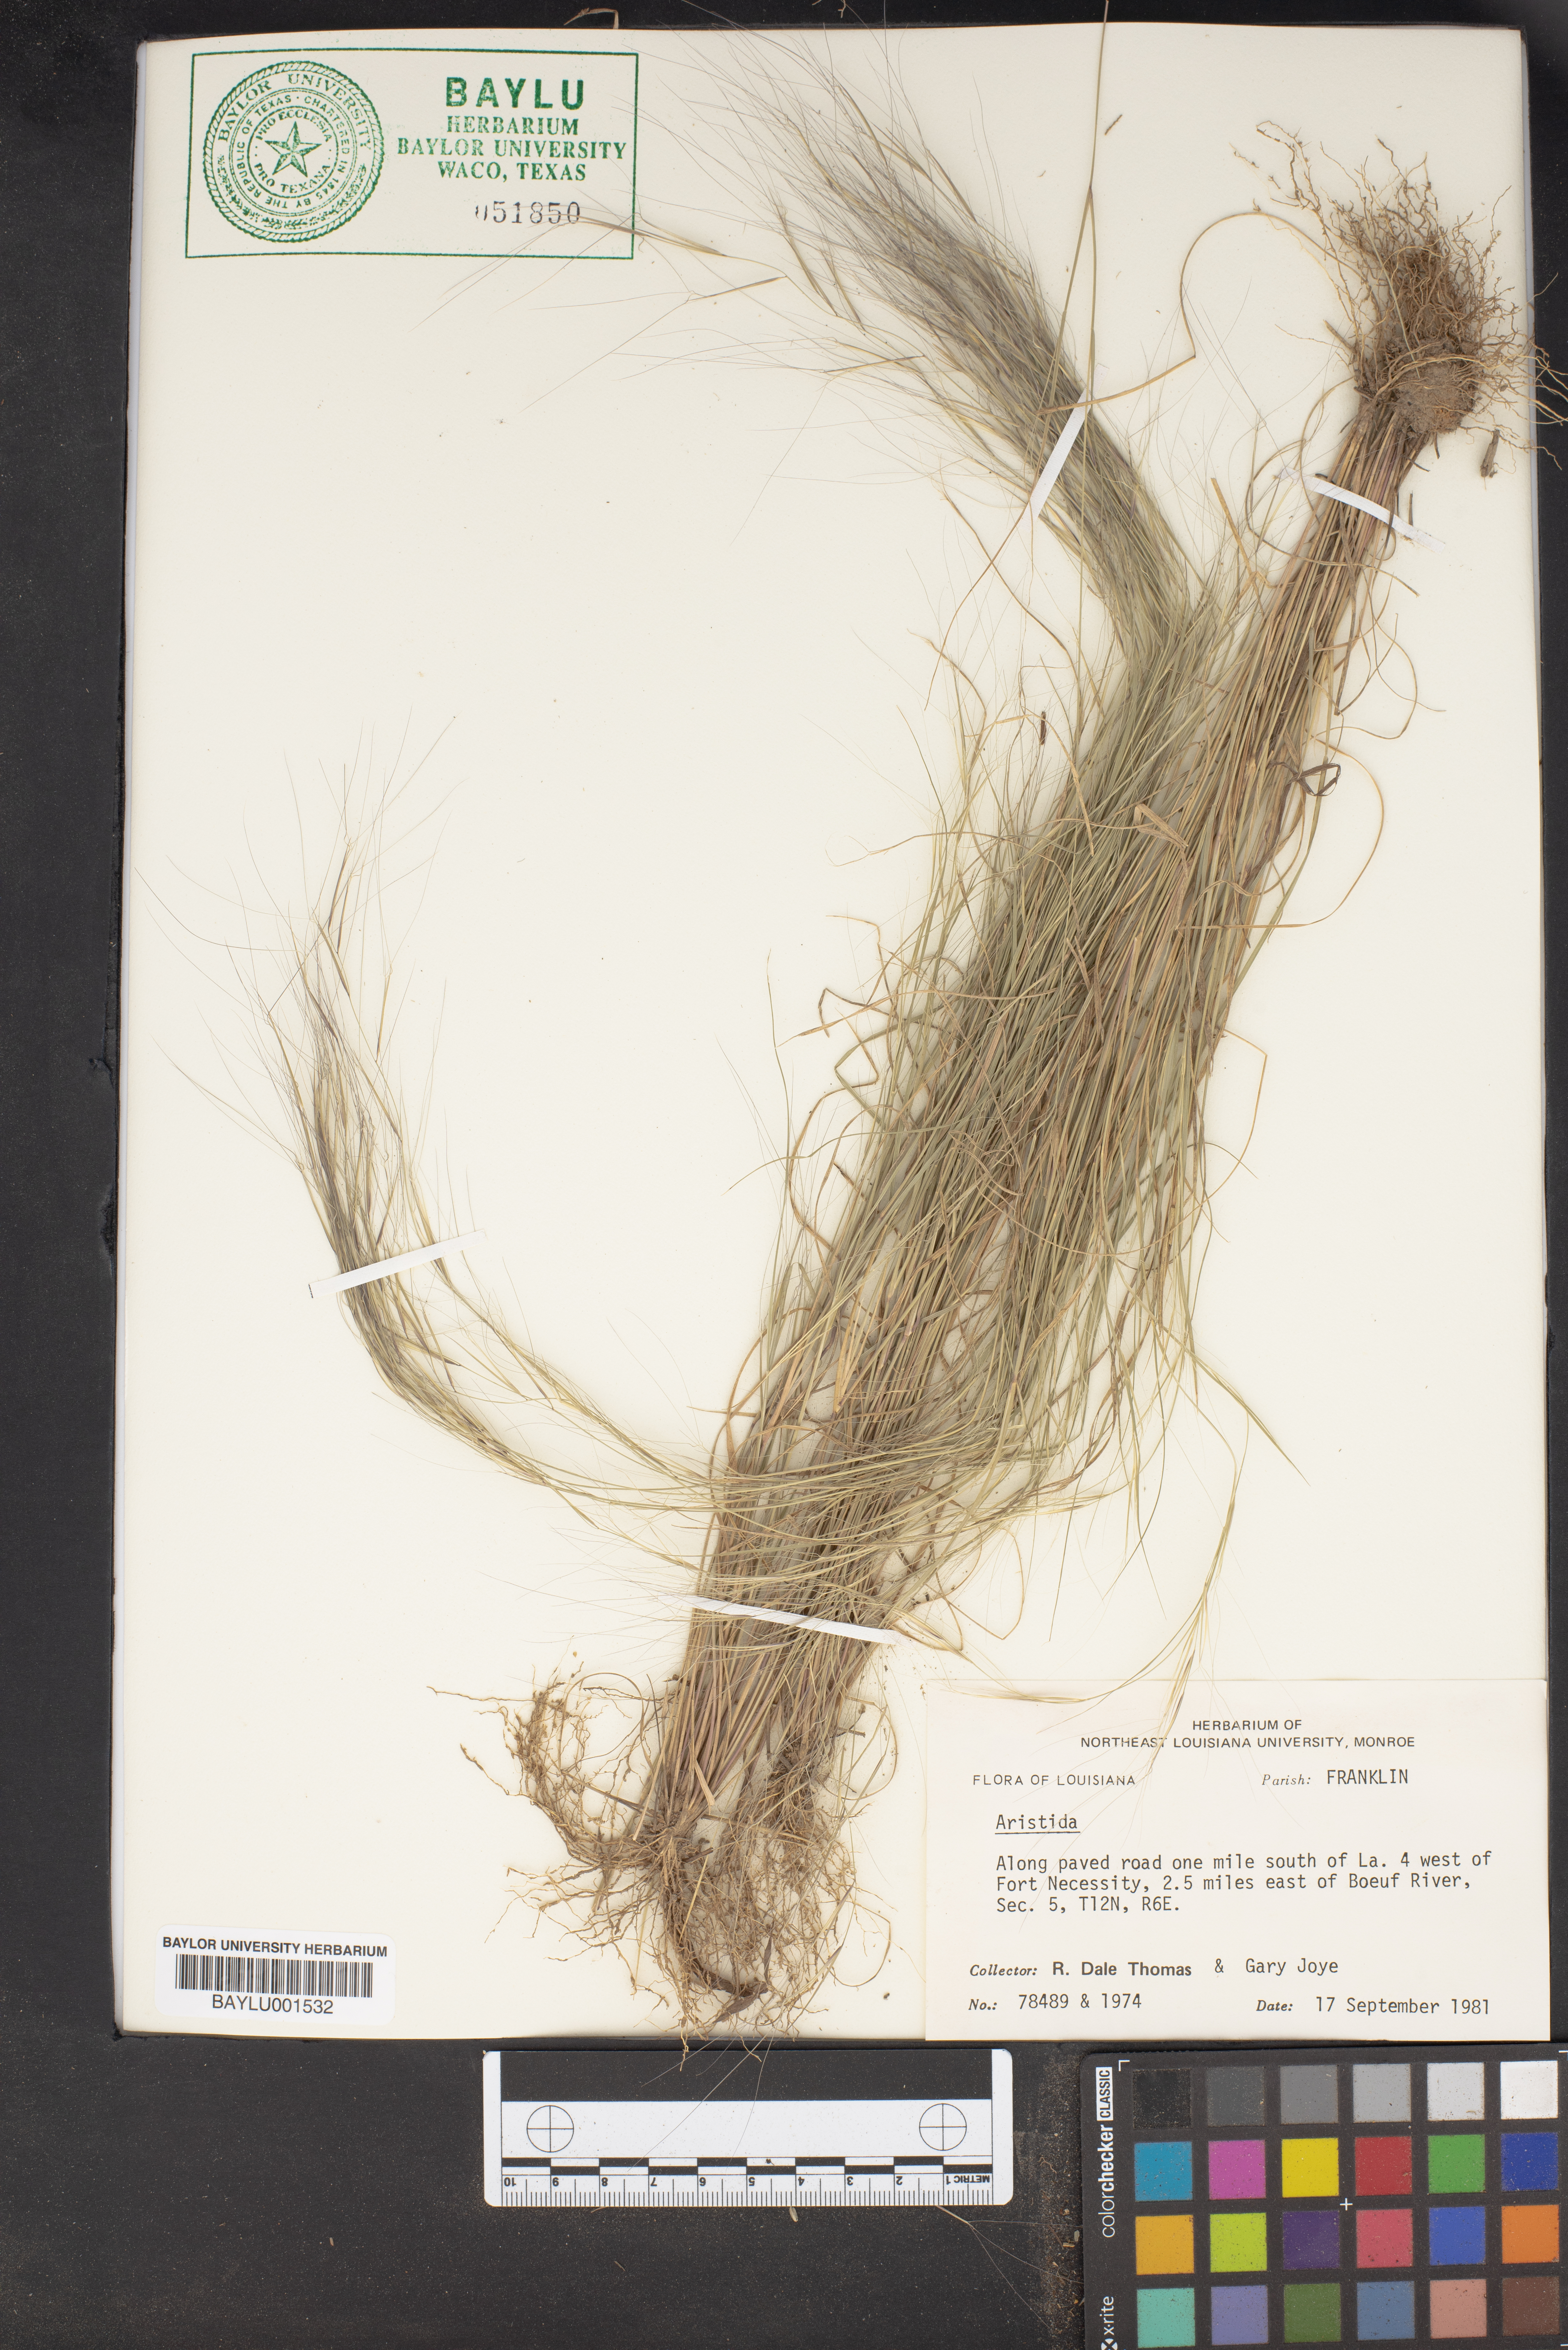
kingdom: Plantae
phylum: Tracheophyta
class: Liliopsida
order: Poales
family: Poaceae
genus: Aristida
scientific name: Aristida
